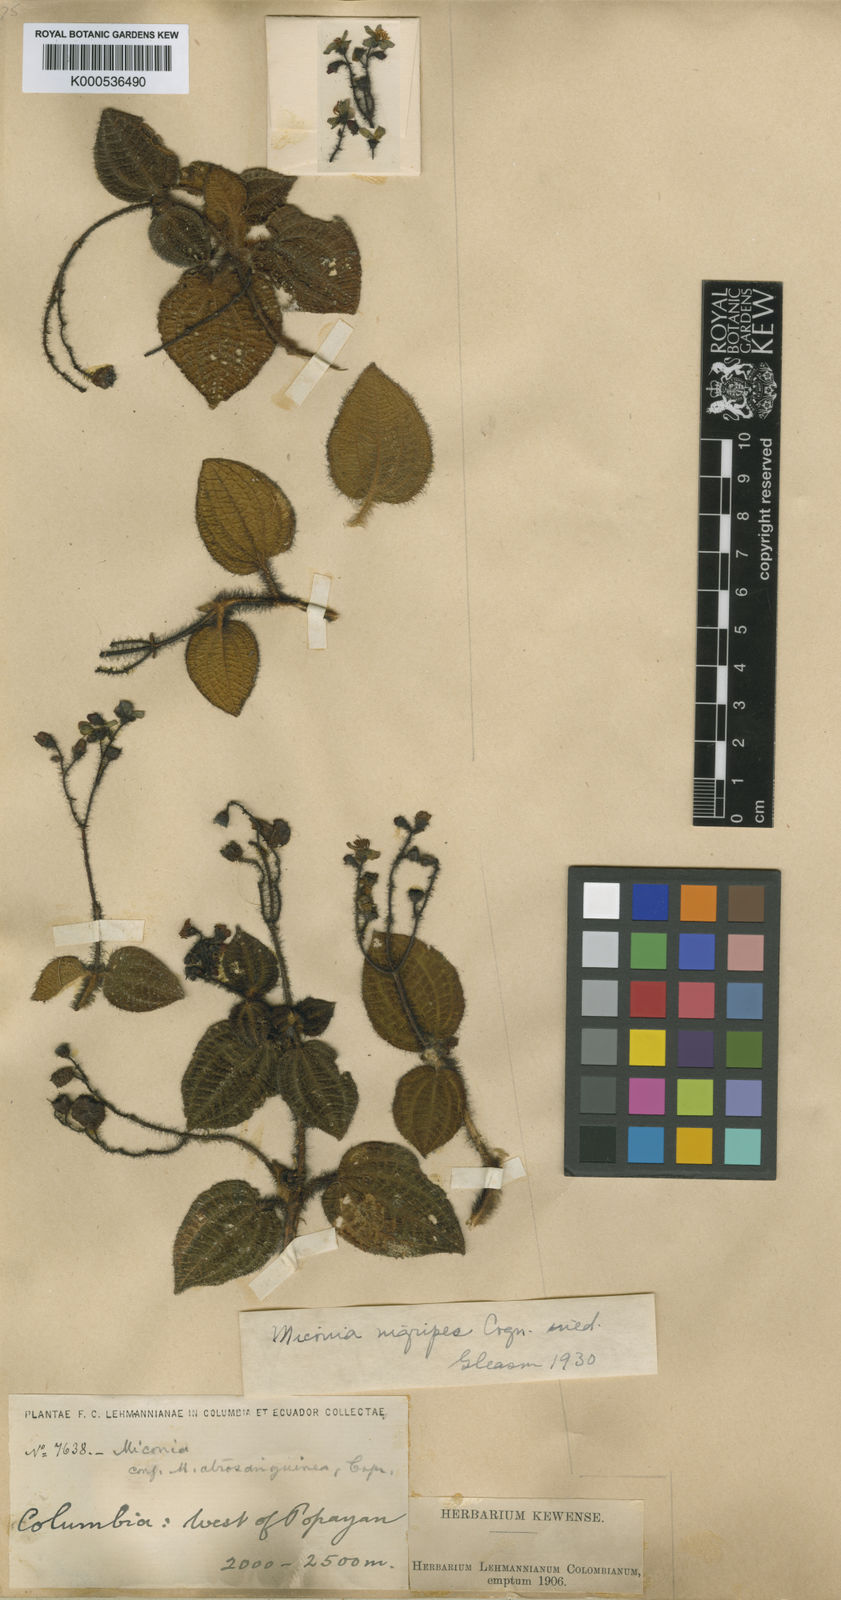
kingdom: Plantae
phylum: Tracheophyta
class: Magnoliopsida
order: Myrtales
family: Melastomataceae
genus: Miconia
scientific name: Miconia nigripes
